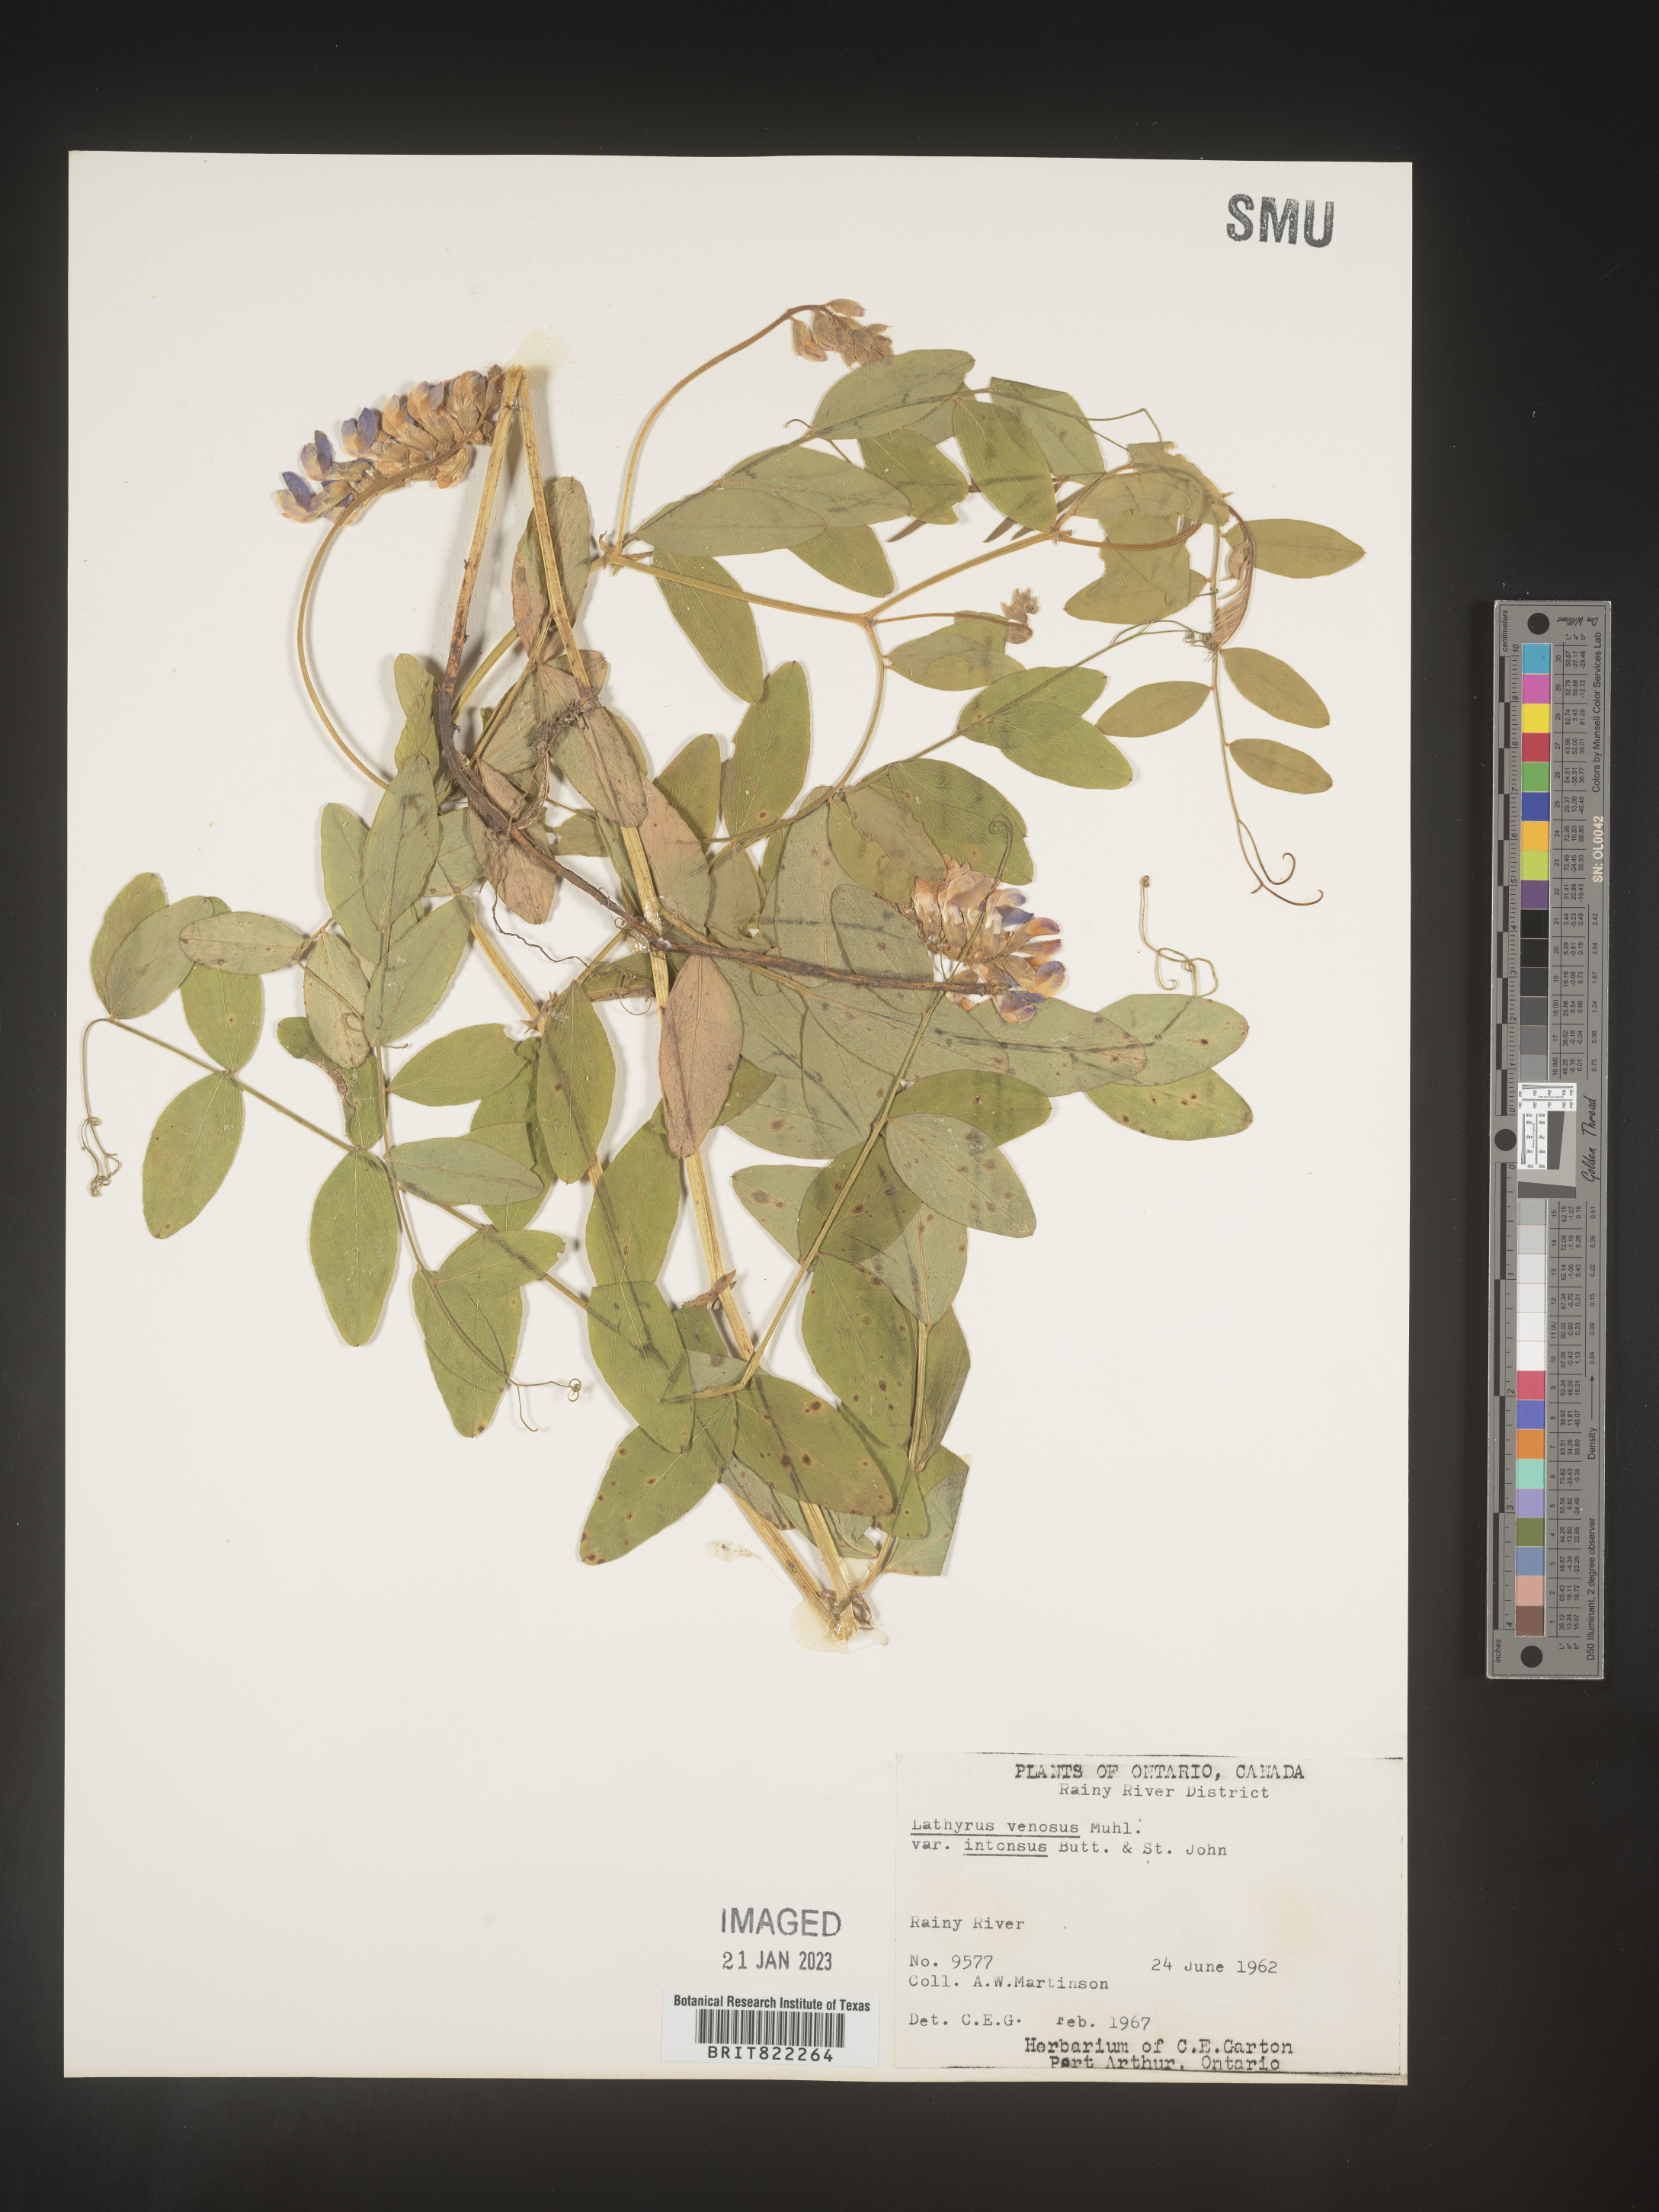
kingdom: Plantae
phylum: Tracheophyta
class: Magnoliopsida
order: Fabales
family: Fabaceae
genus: Lathyrus
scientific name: Lathyrus venosus
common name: Forest-pea
